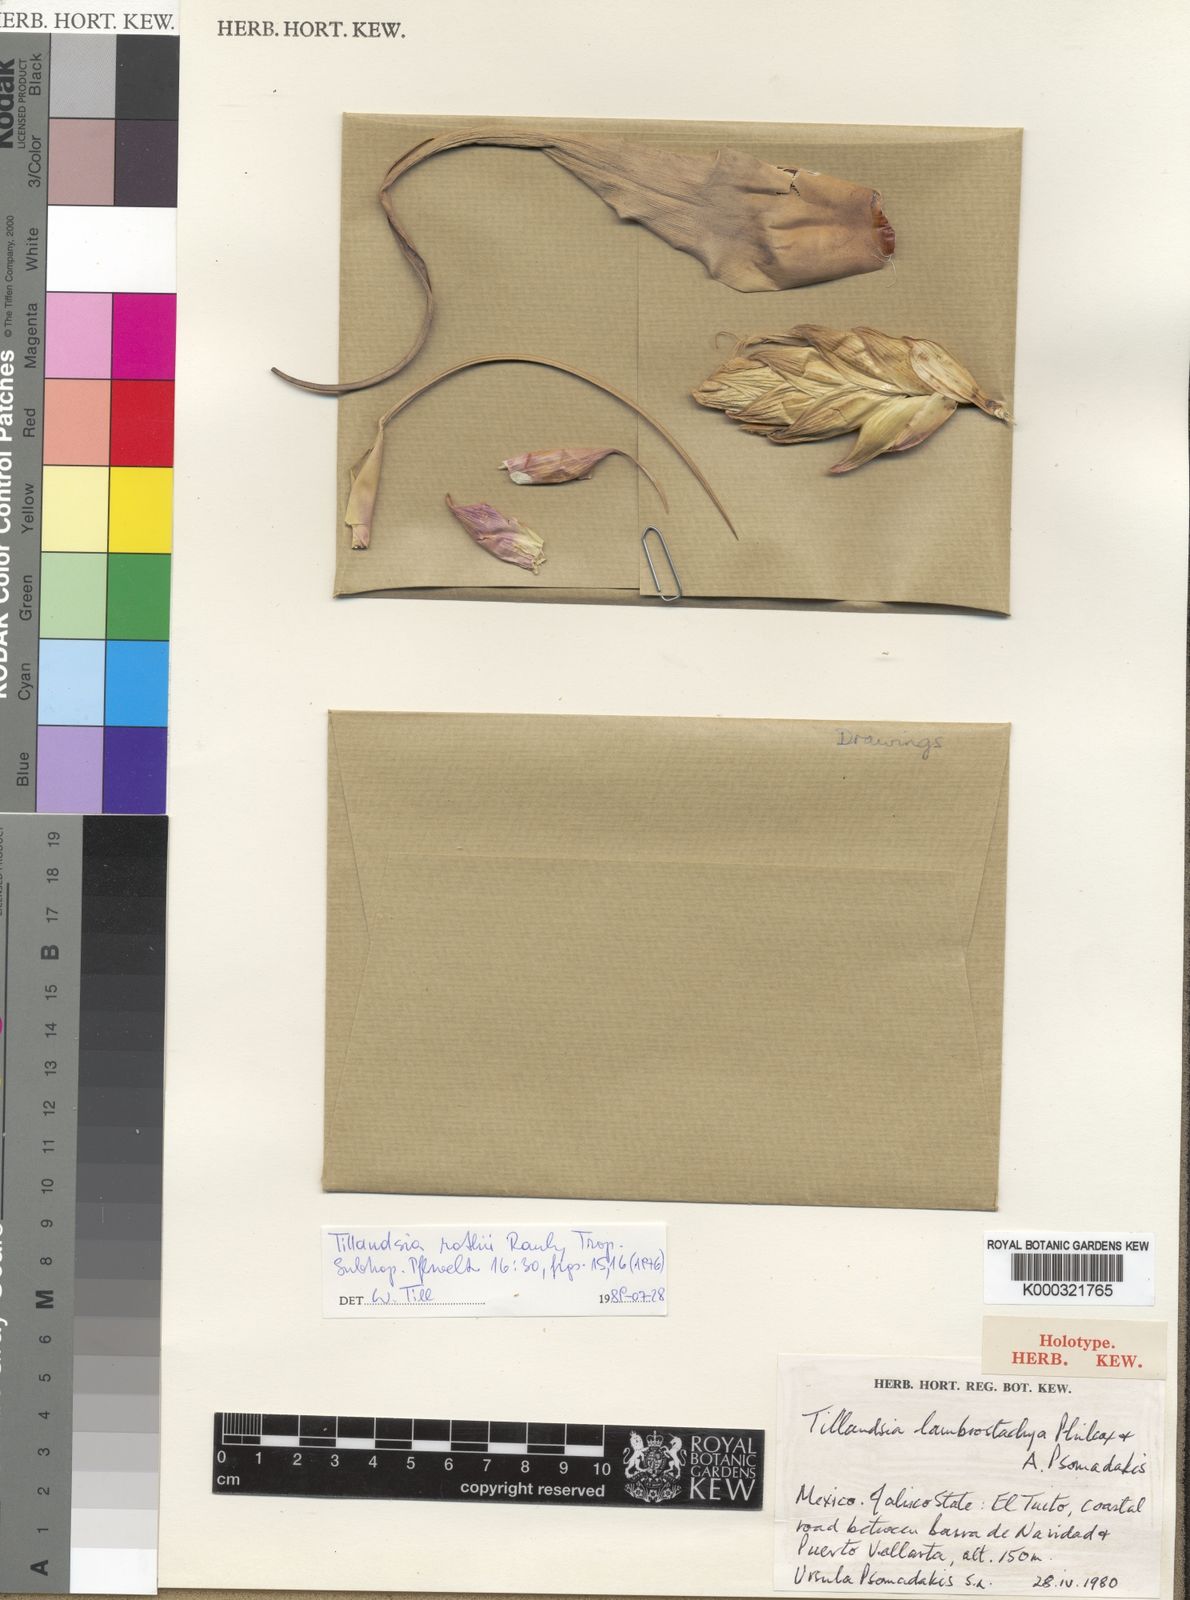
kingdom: Plantae
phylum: Tracheophyta
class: Liliopsida
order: Poales
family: Bromeliaceae
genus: Tillandsia
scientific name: Tillandsia rothii
